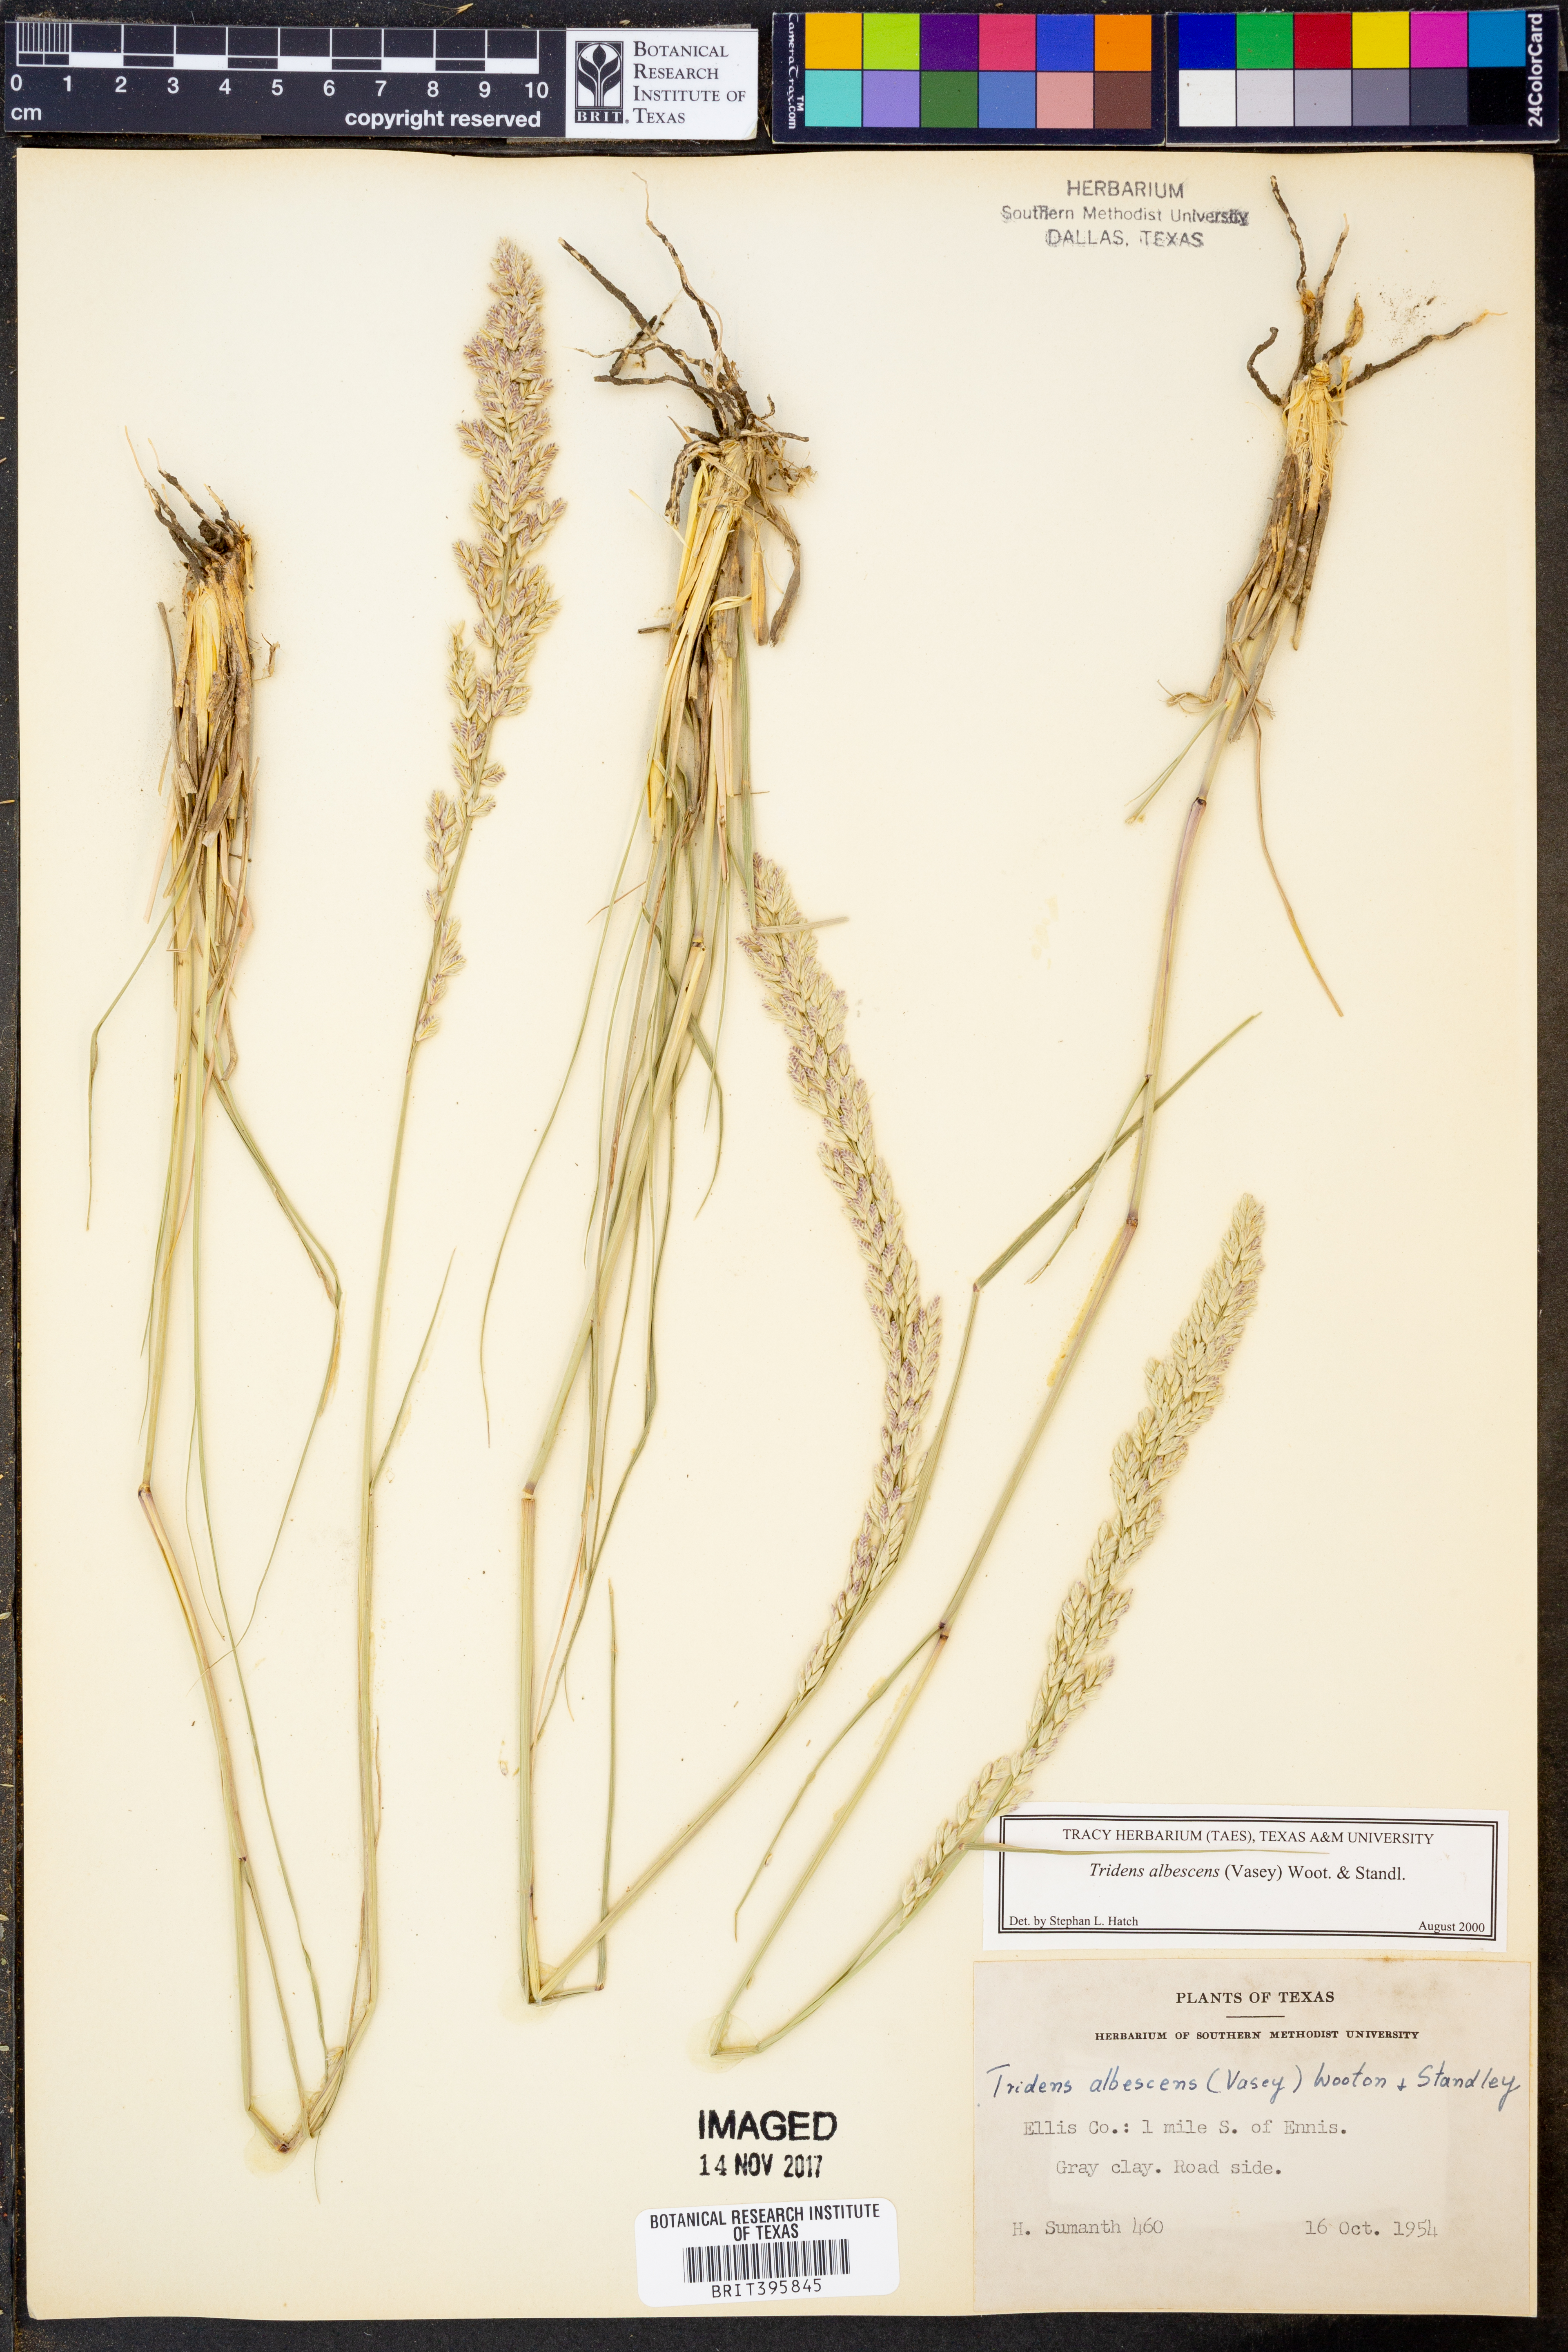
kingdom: Plantae
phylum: Tracheophyta
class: Liliopsida
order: Poales
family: Poaceae
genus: Tridens
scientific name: Tridens albescens
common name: White tridens
